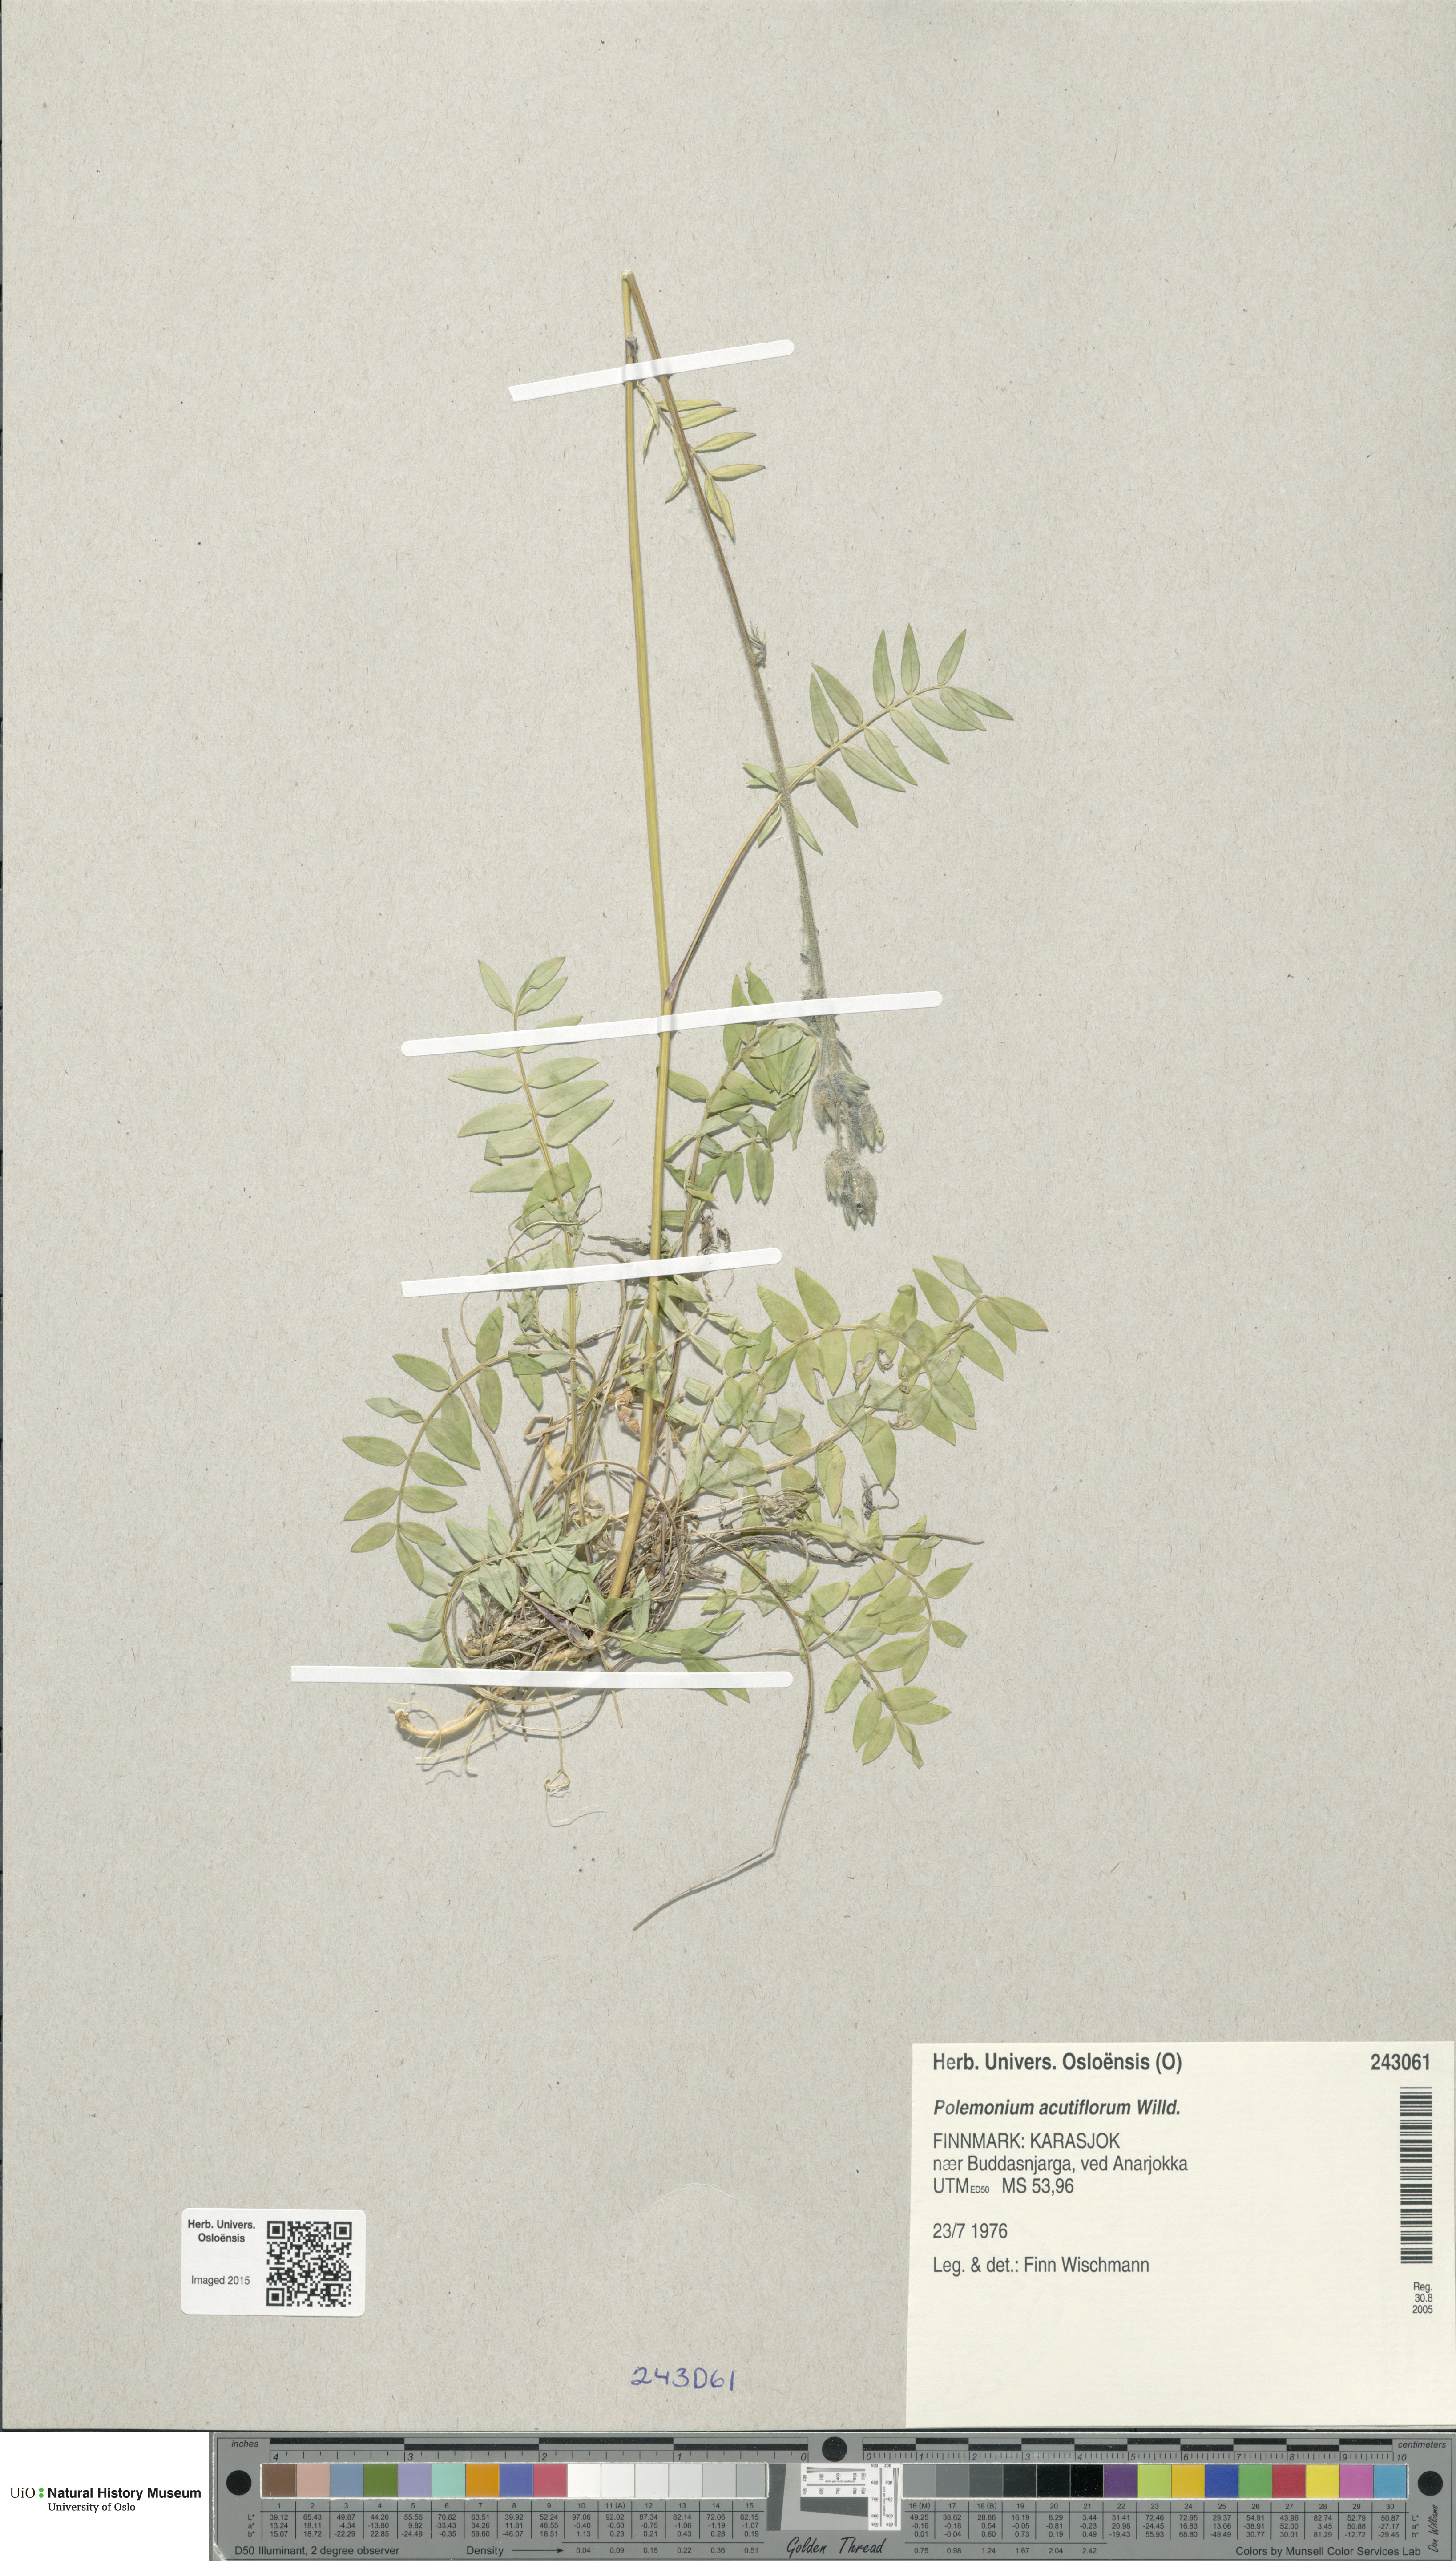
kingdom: Plantae
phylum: Tracheophyta
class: Magnoliopsida
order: Ericales
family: Polemoniaceae
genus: Polemonium
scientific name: Polemonium villosum
